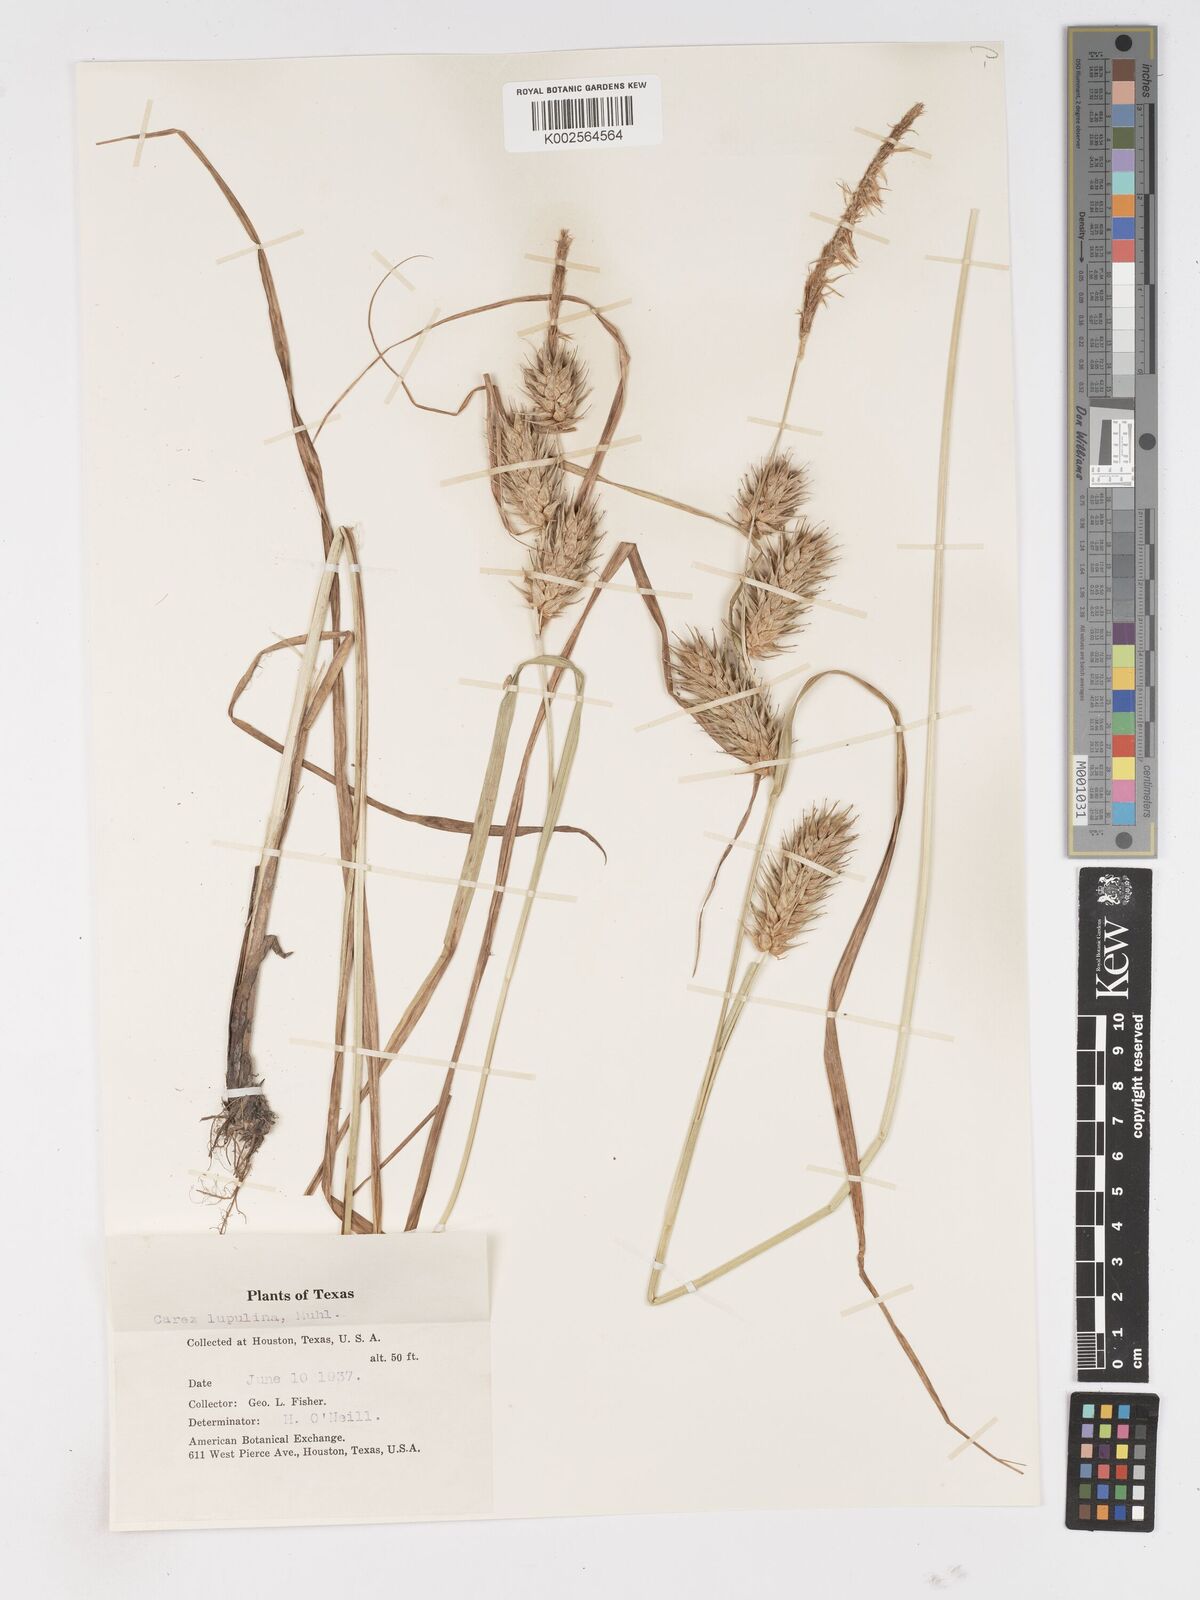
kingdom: Plantae
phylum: Tracheophyta
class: Liliopsida
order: Poales
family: Cyperaceae
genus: Carex
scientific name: Carex lupulina
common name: Hop sedge
